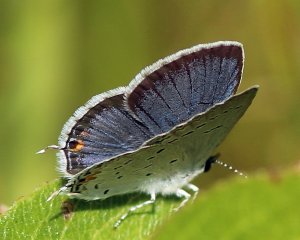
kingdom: Animalia
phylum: Arthropoda
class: Insecta
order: Lepidoptera
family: Lycaenidae
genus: Elkalyce
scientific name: Elkalyce comyntas
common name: Eastern Tailed-Blue
